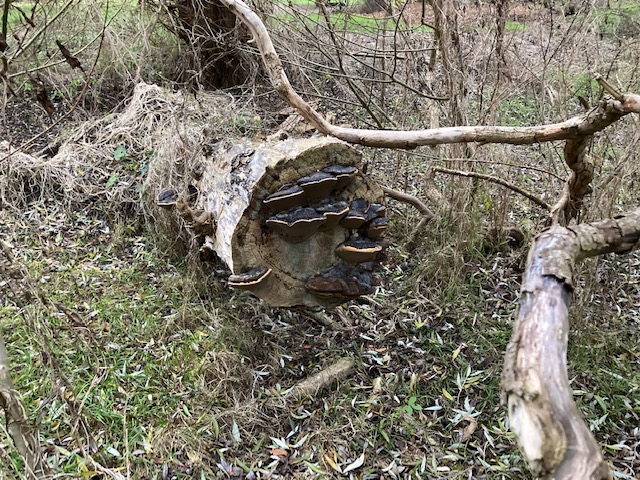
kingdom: Fungi
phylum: Basidiomycota
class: Agaricomycetes
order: Hymenochaetales
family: Hymenochaetaceae
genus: Phellinus
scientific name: Phellinus igniarius
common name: almindelig ildporesvamp
